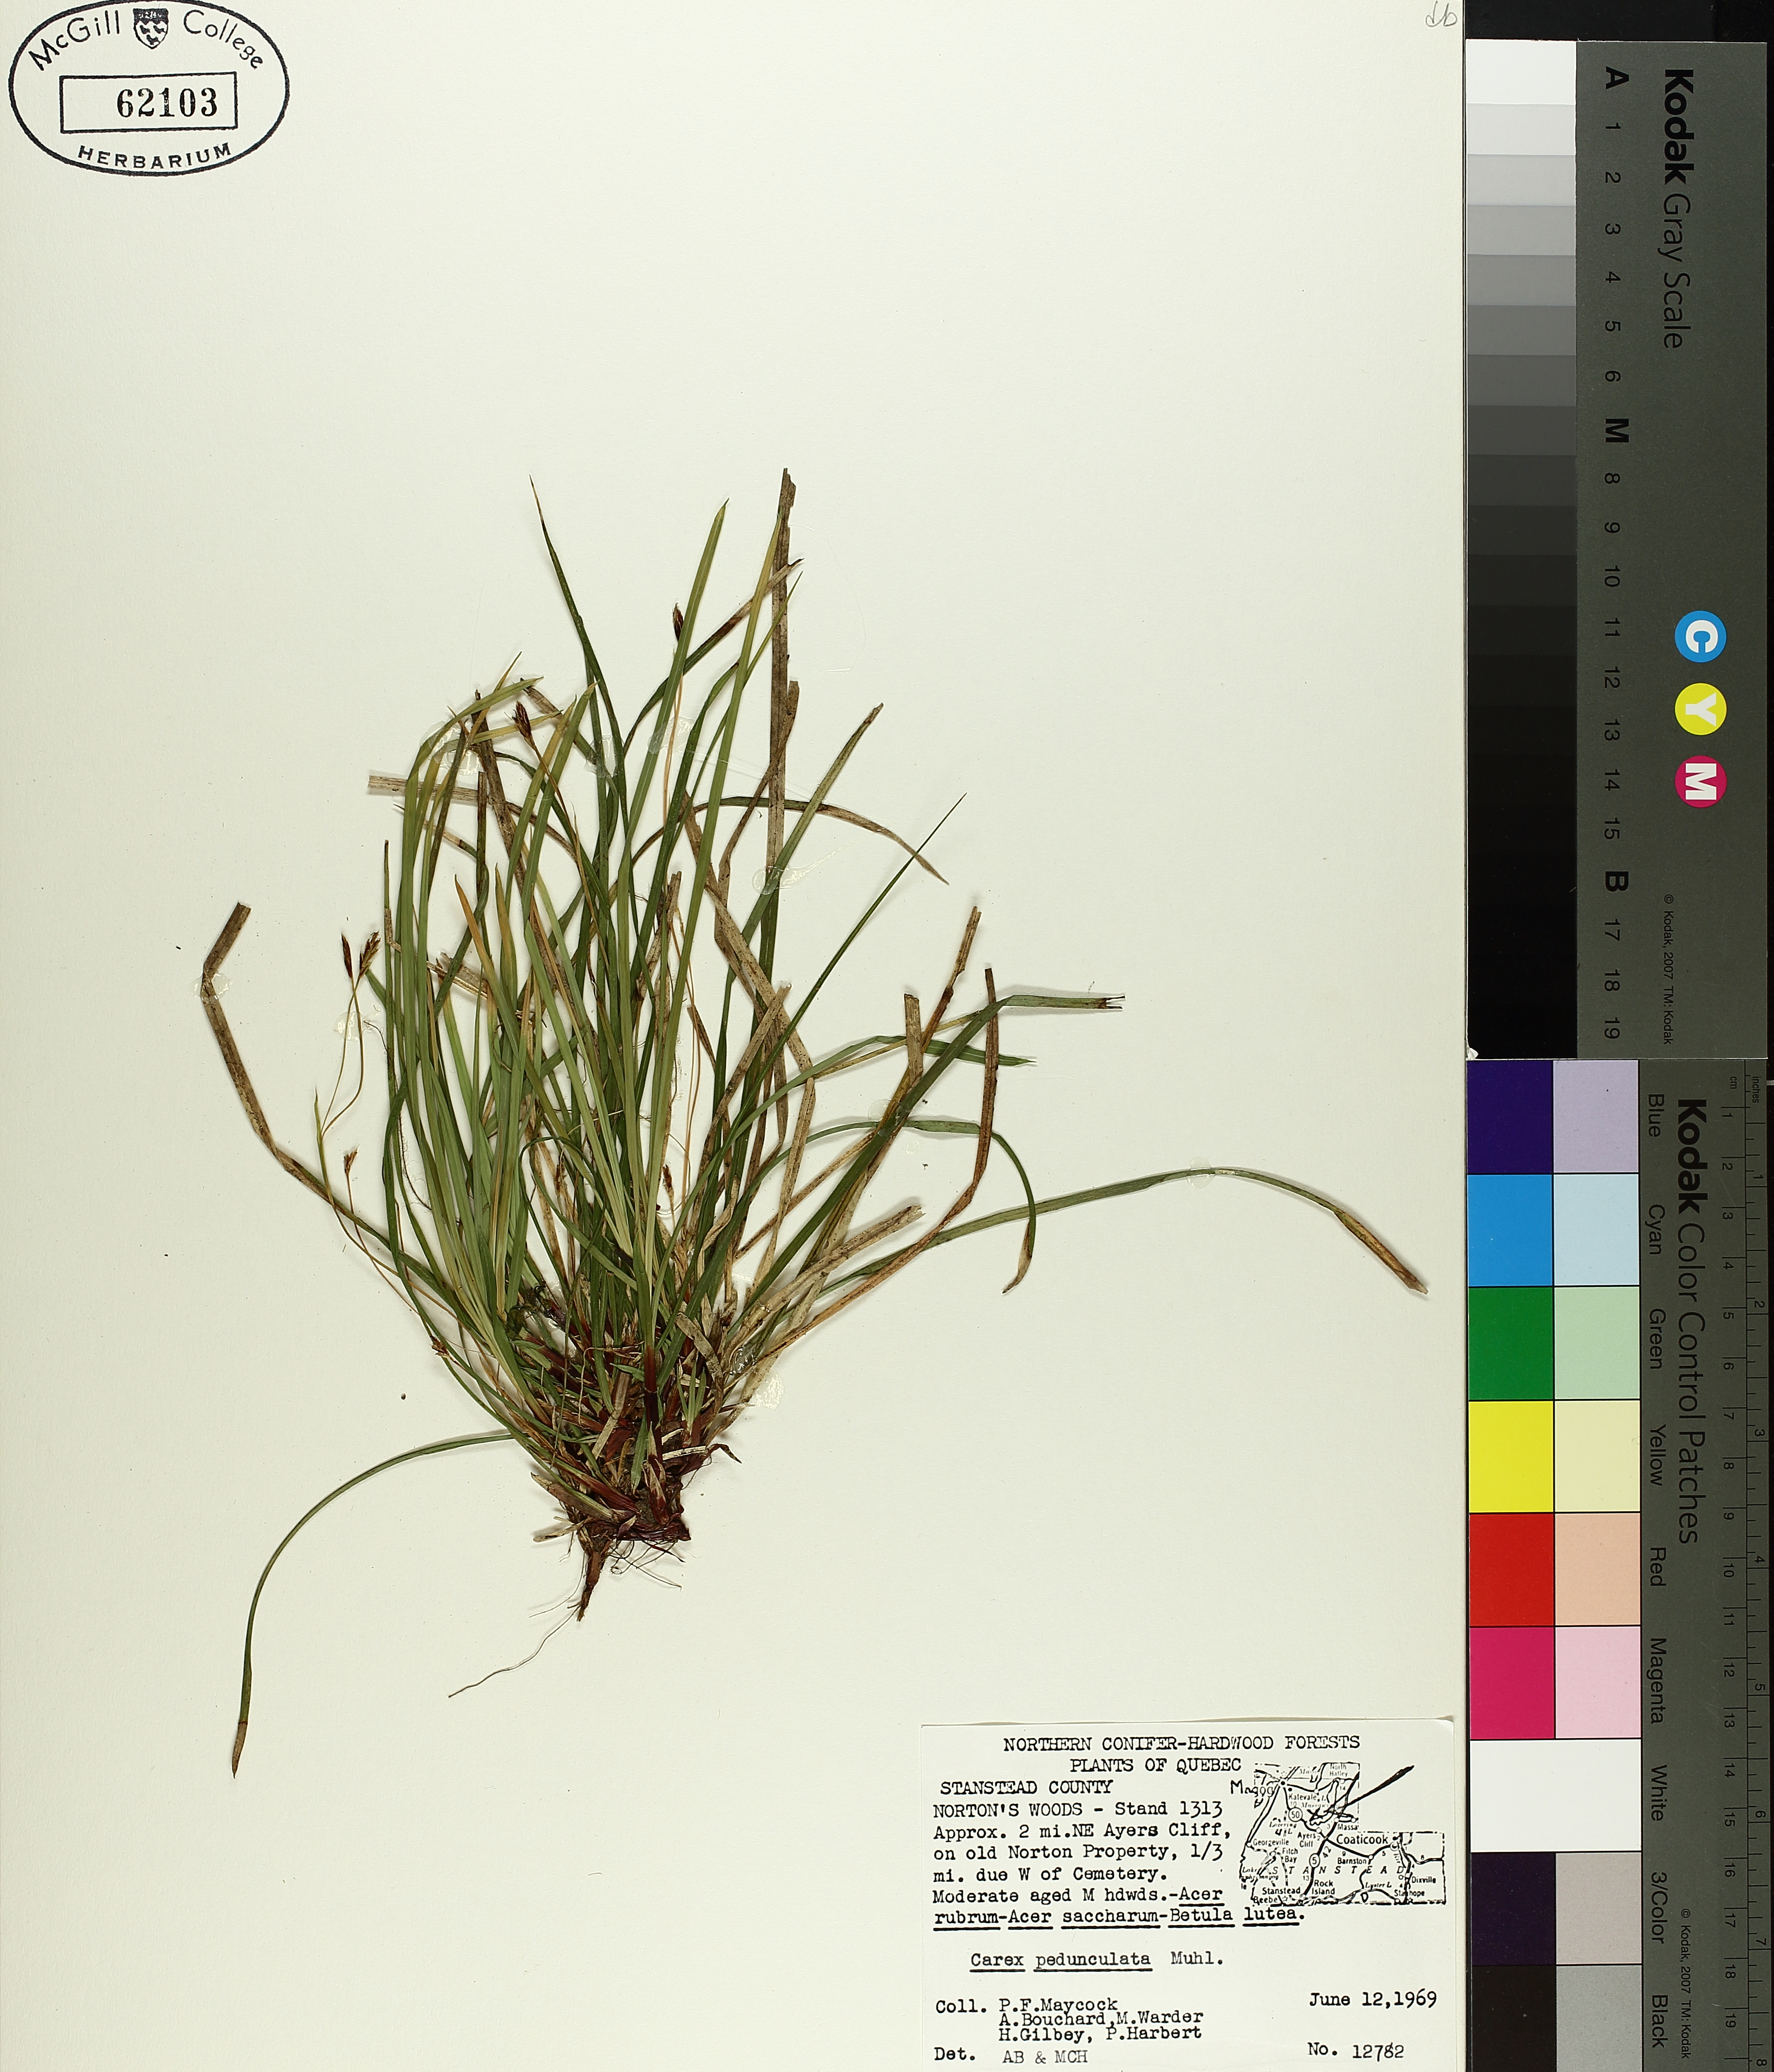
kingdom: Plantae
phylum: Tracheophyta
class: Liliopsida
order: Poales
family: Cyperaceae
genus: Carex
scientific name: Carex pedunculata
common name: Pedunculate sedge
